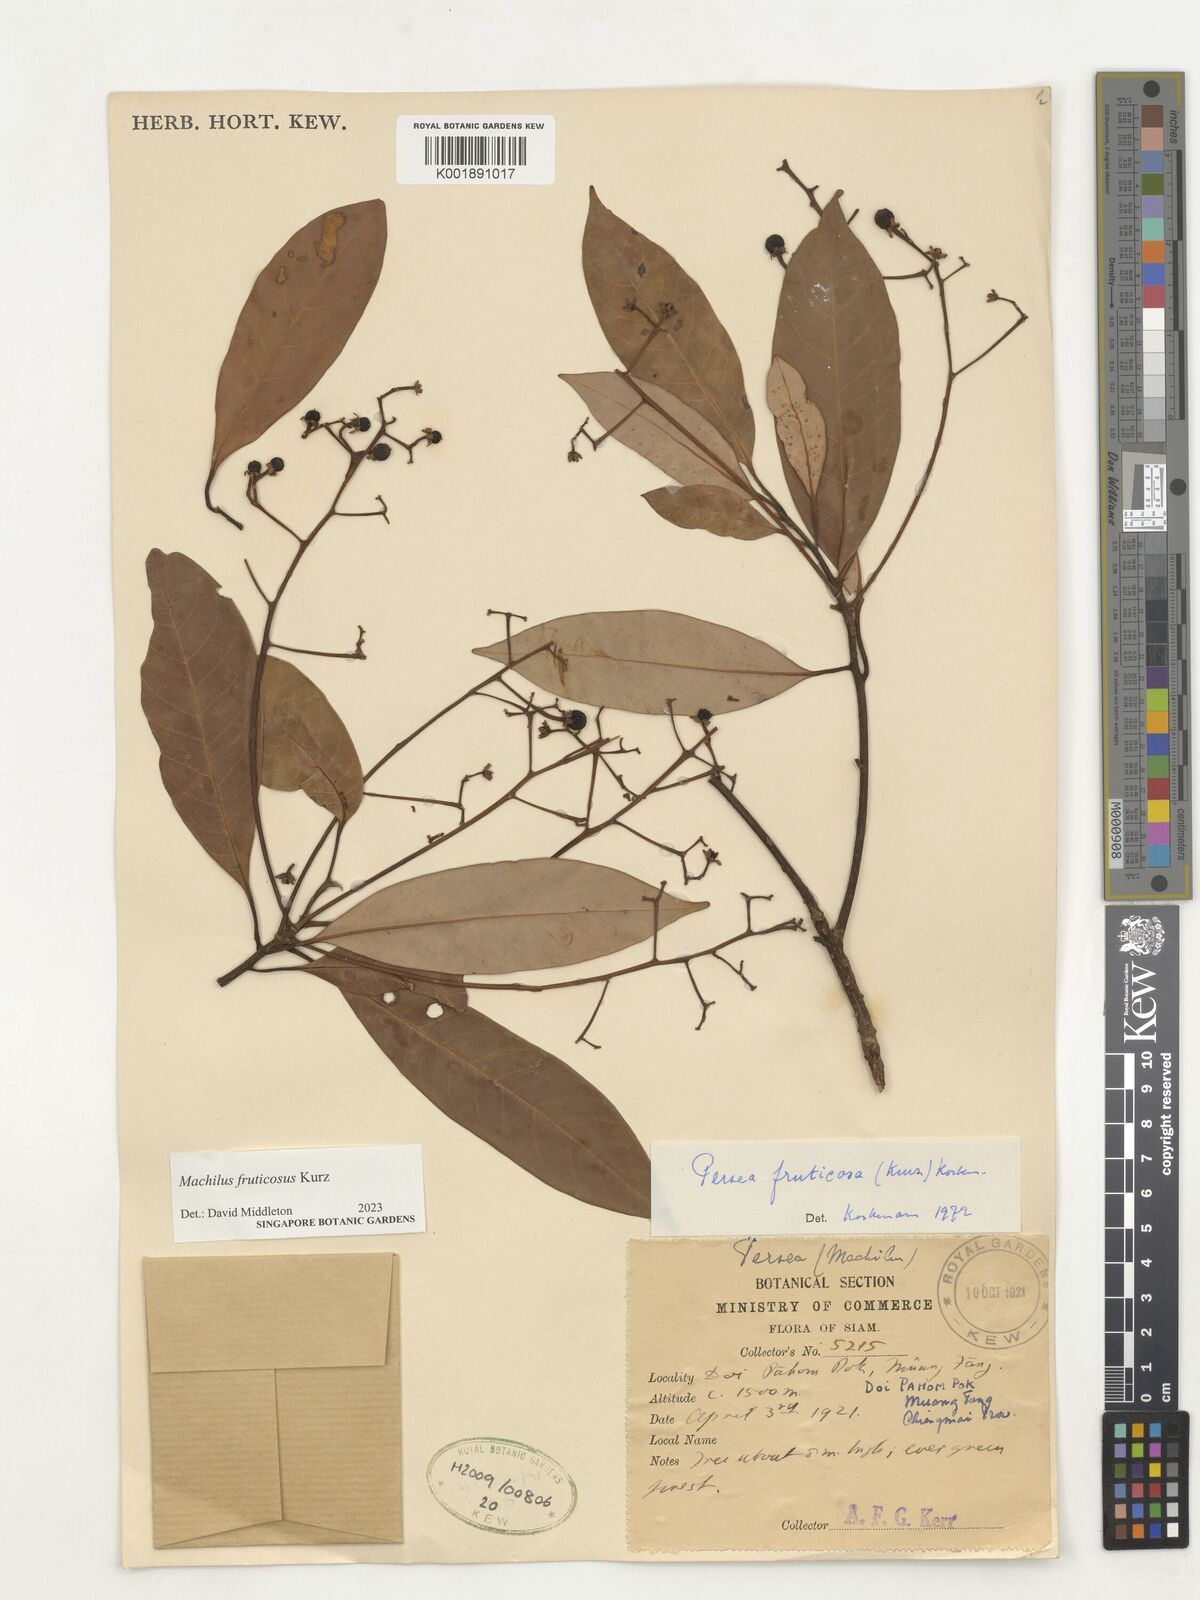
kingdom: Plantae
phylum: Tracheophyta
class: Magnoliopsida
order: Laurales
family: Lauraceae
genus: Machilus
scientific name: Machilus fruticosa
